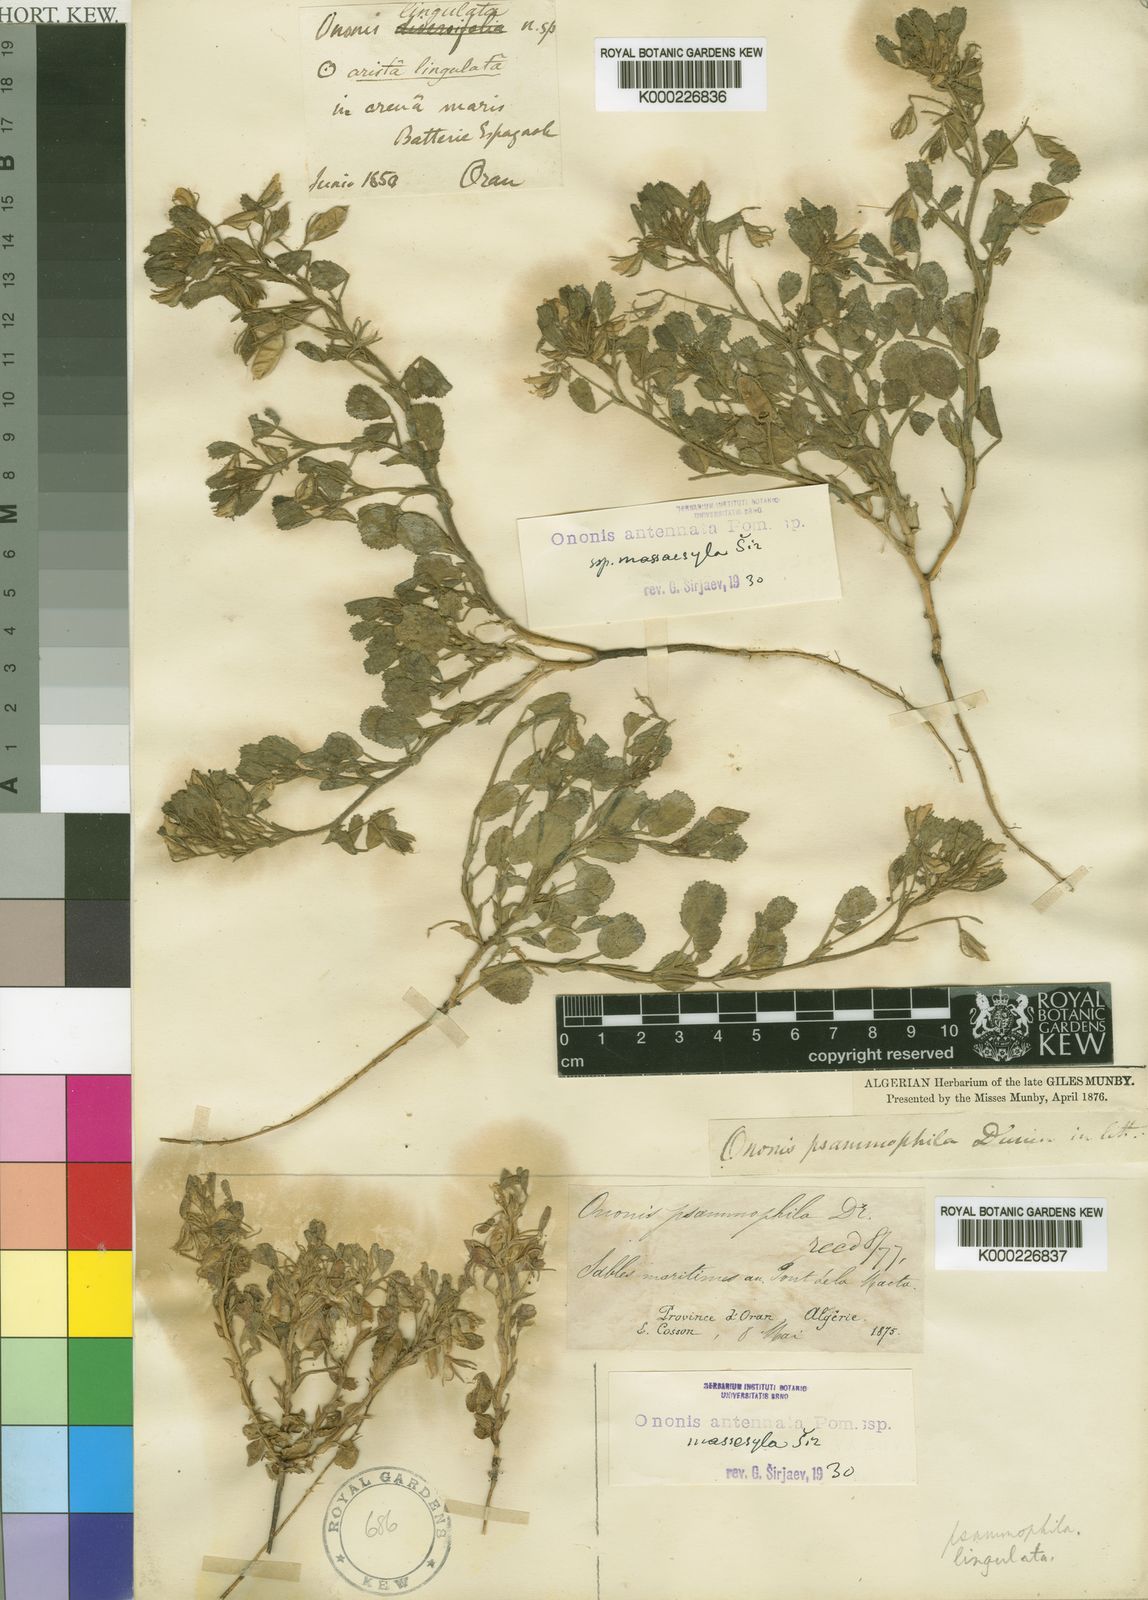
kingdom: Plantae
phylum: Tracheophyta
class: Magnoliopsida
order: Fabales
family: Fabaceae
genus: Ononis
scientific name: Ononis antennata
